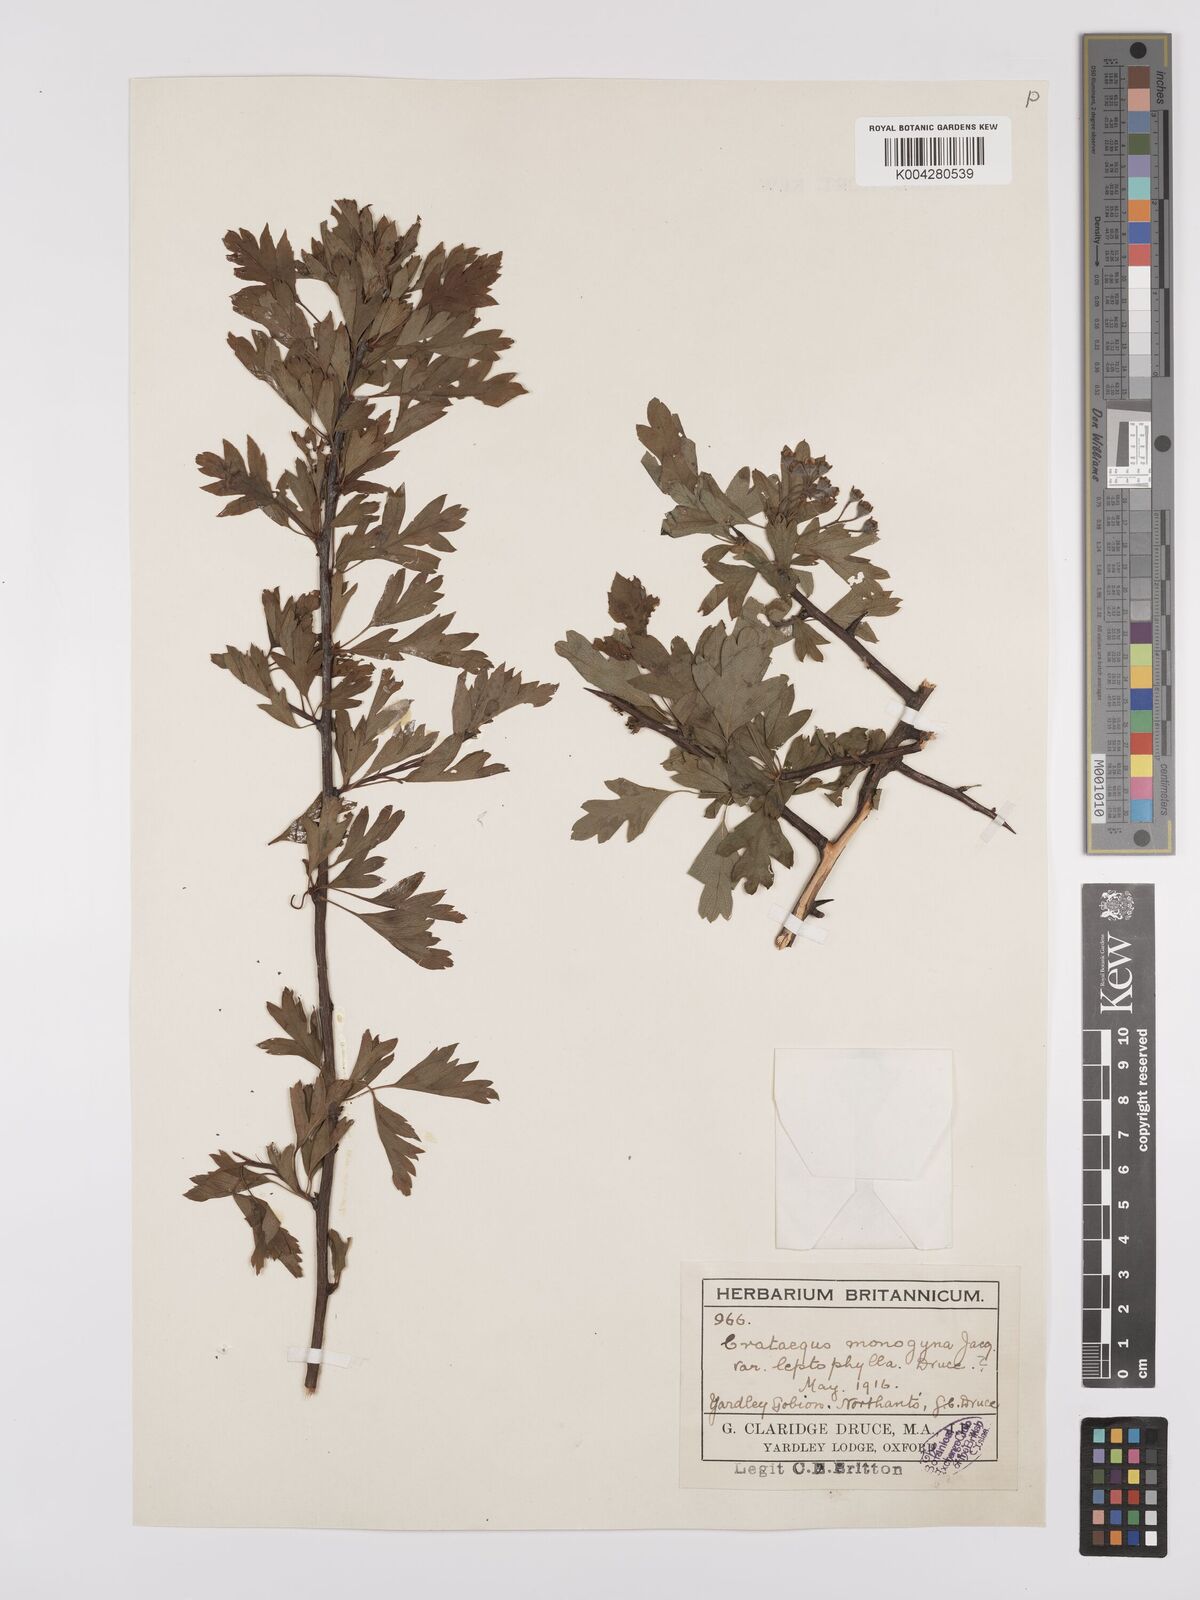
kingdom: Plantae
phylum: Tracheophyta
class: Magnoliopsida
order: Rosales
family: Rosaceae
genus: Crataegus
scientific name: Crataegus monogyna
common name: Hawthorn
